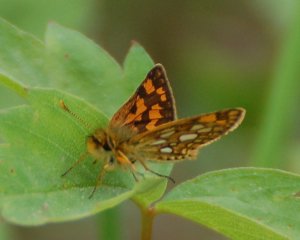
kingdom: Animalia
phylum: Arthropoda
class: Insecta
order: Lepidoptera
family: Hesperiidae
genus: Carterocephalus
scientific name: Carterocephalus palaemon
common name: Chequered Skipper
